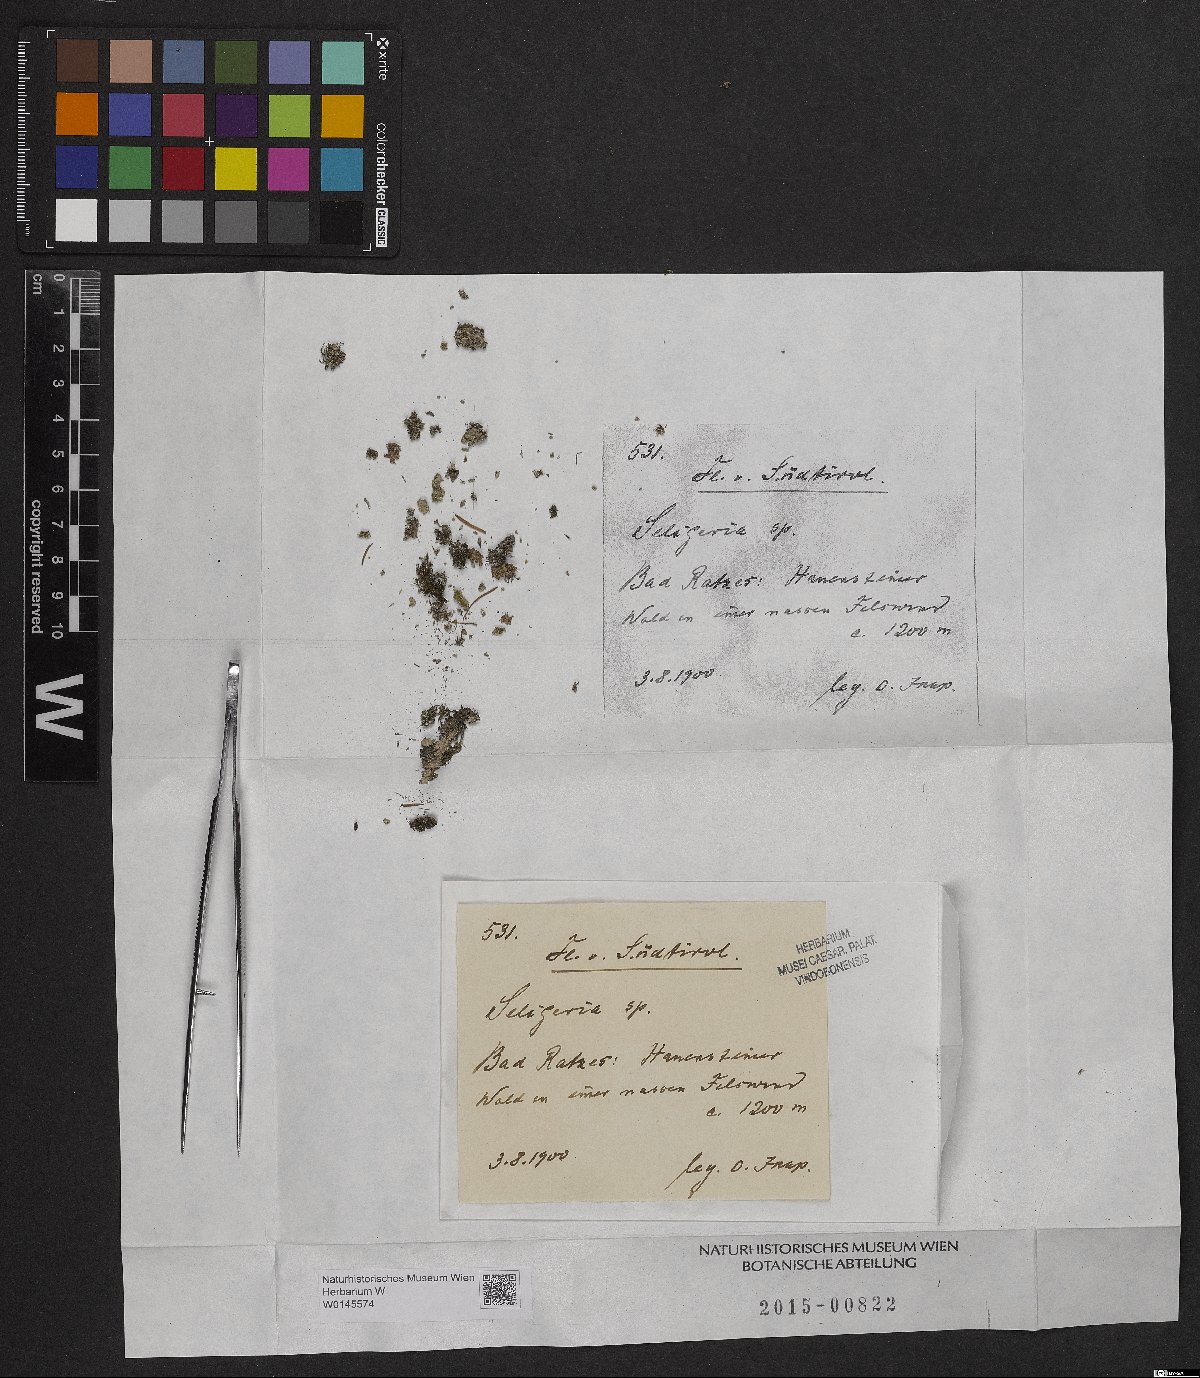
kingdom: Plantae
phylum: Bryophyta
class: Bryopsida
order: Grimmiales
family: Seligeriaceae
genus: Seligeria
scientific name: Seligeria
